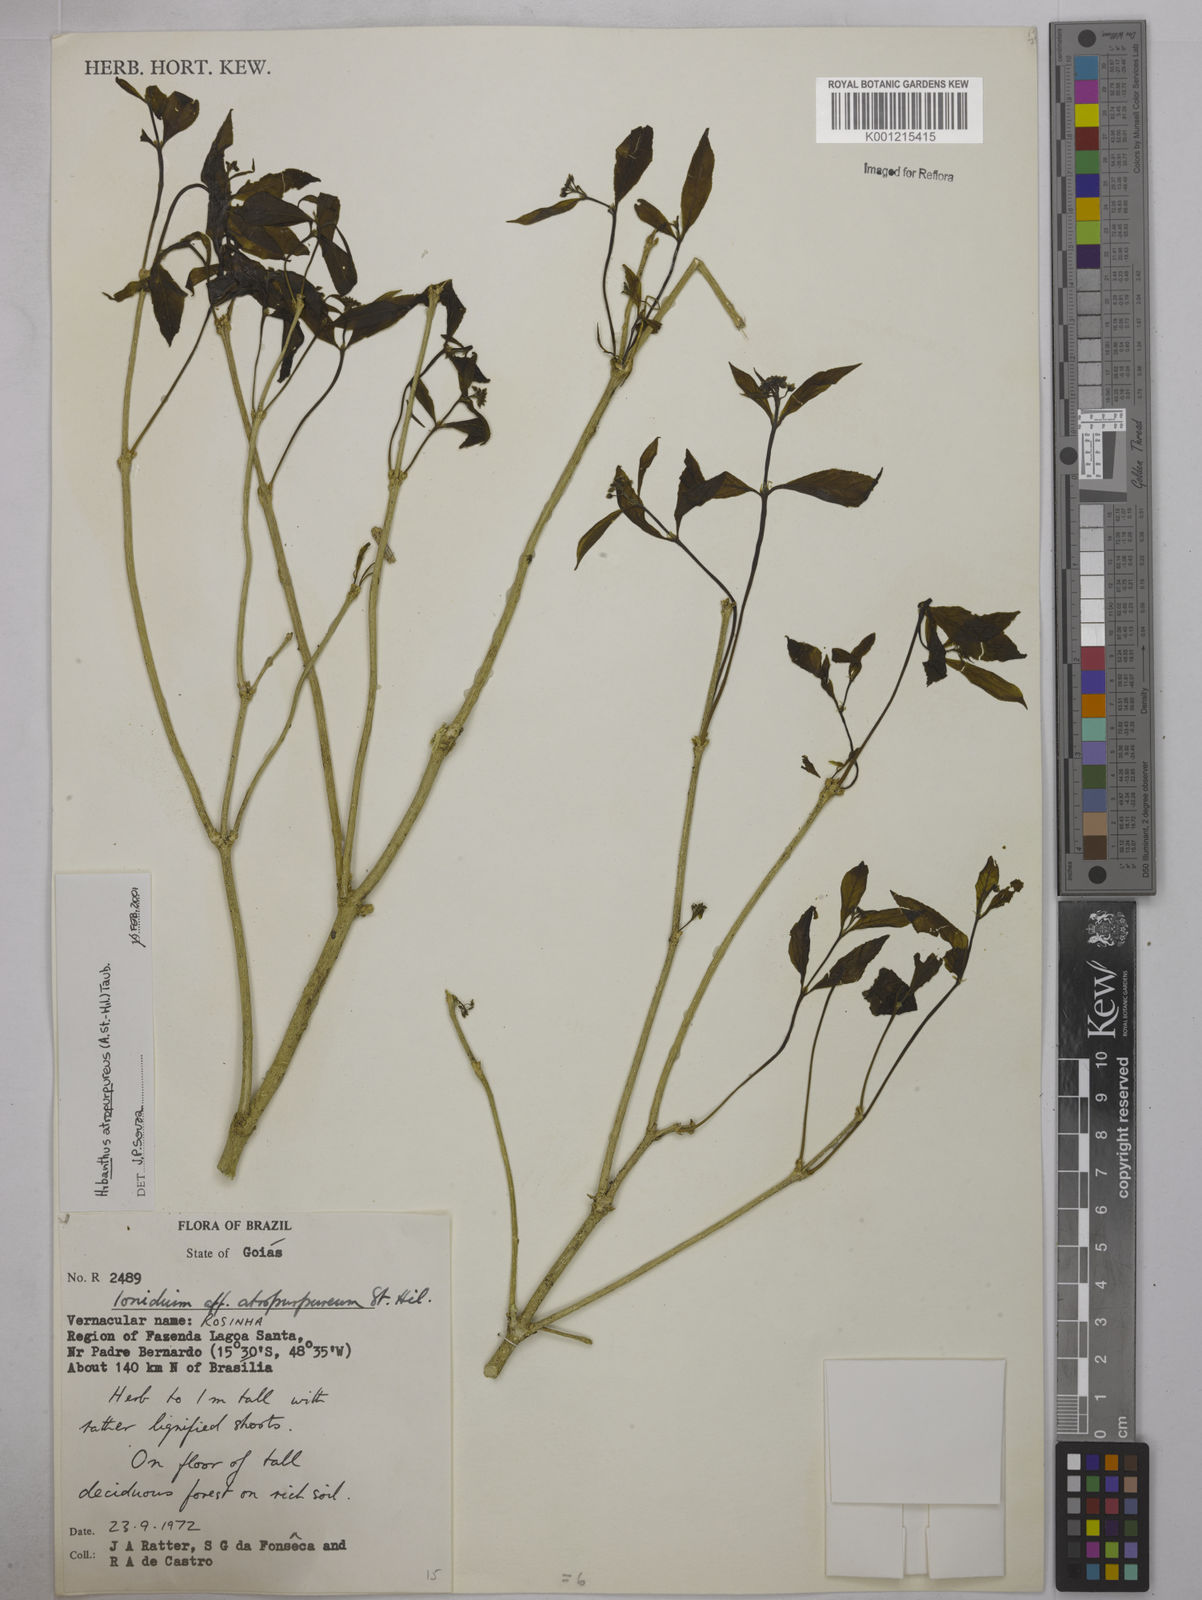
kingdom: Plantae
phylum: Tracheophyta
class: Magnoliopsida
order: Malpighiales
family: Violaceae
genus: Pombalia
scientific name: Pombalia atropurpurea
